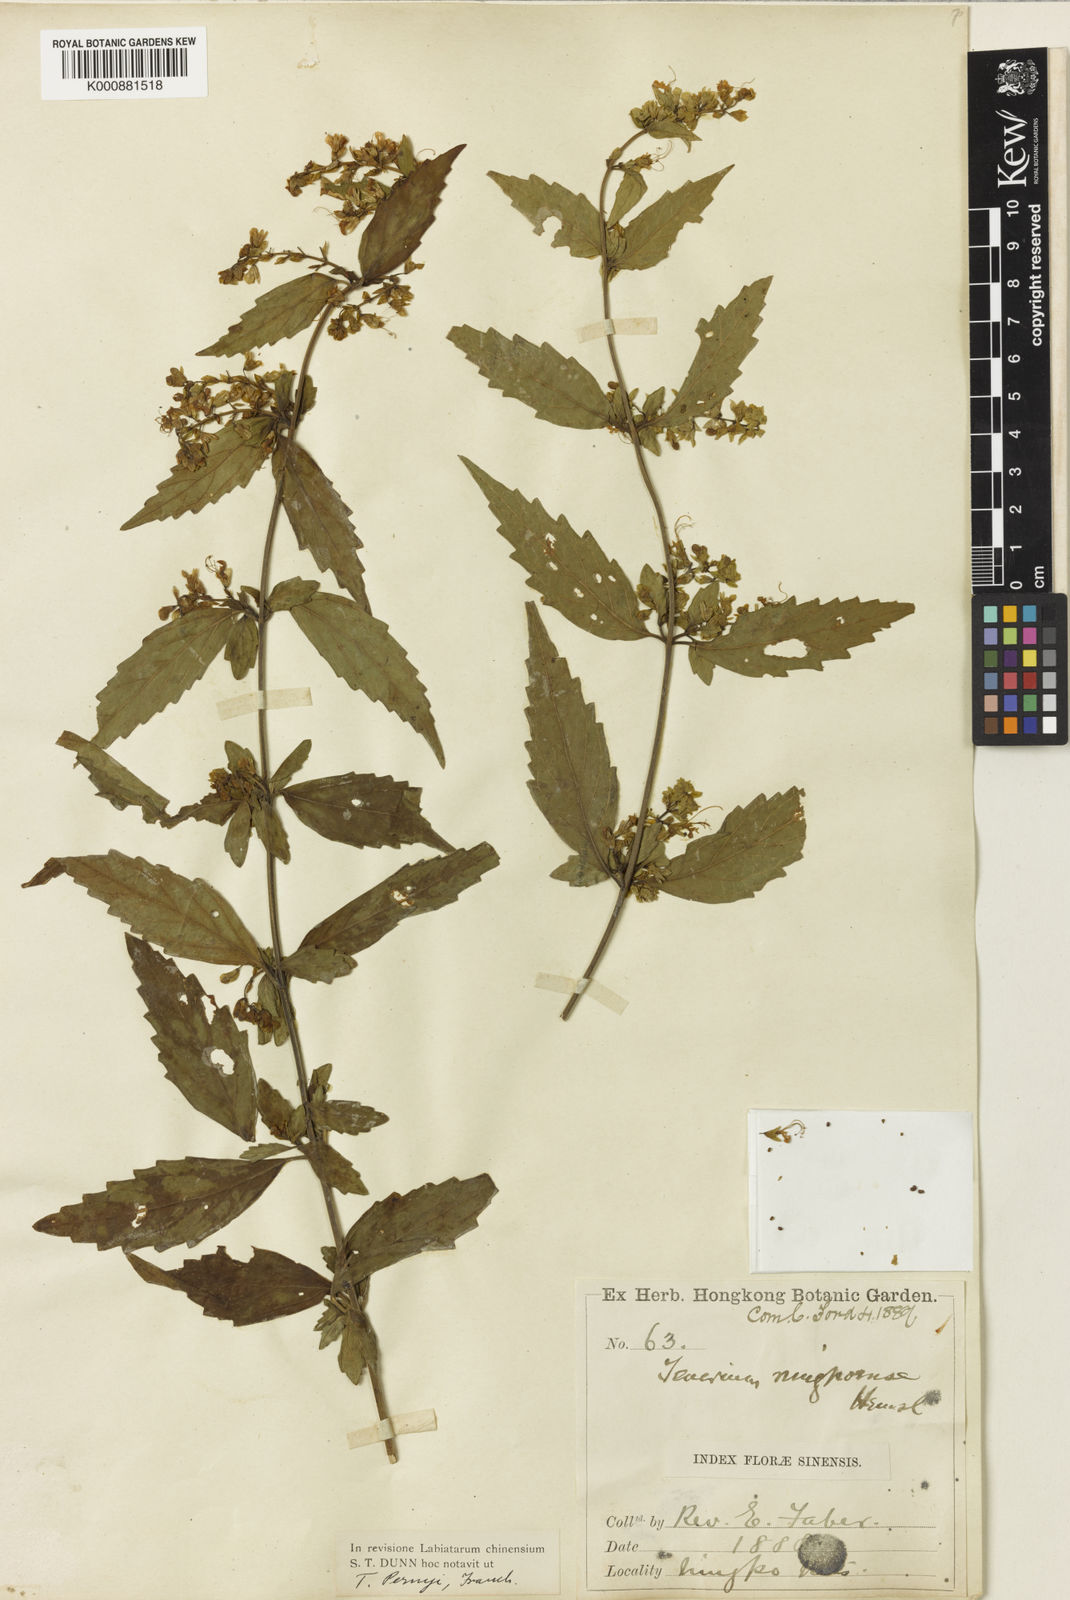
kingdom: Plantae
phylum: Tracheophyta
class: Magnoliopsida
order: Lamiales
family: Lamiaceae
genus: Teucrium
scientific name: Teucrium pernyi
